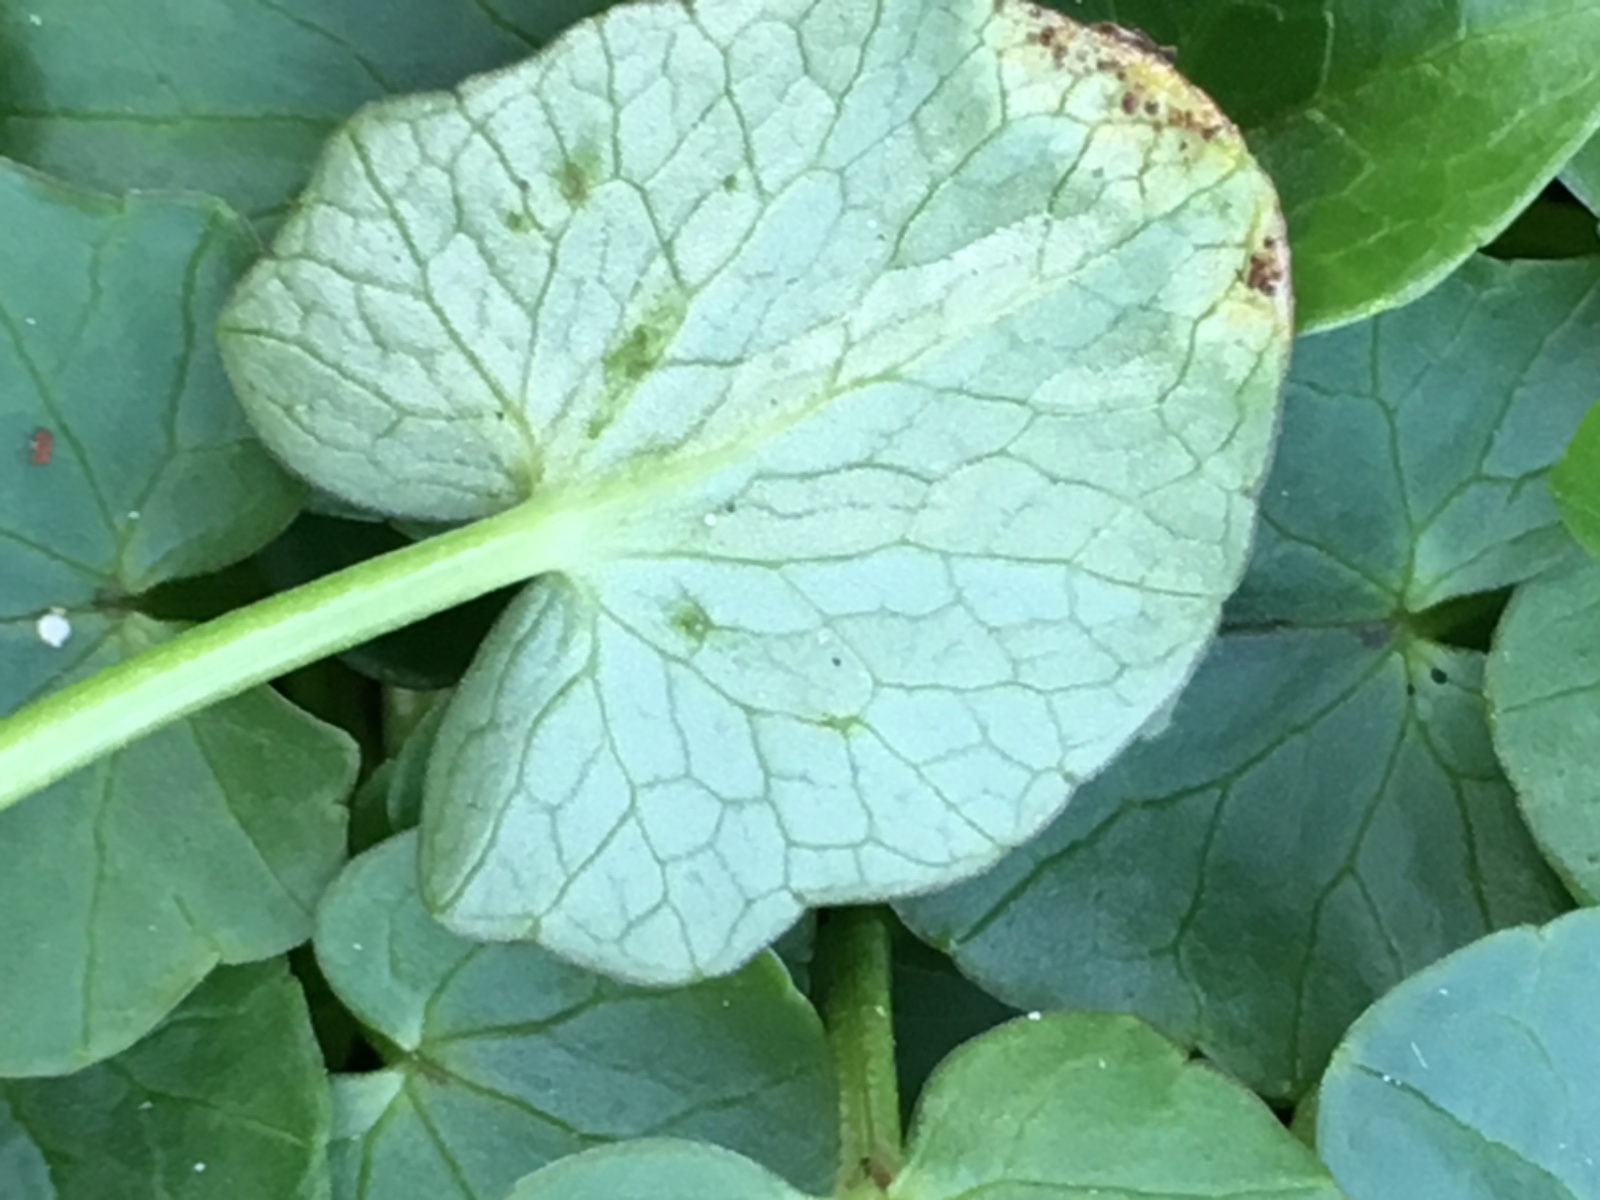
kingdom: Fungi
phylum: Basidiomycota
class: Pucciniomycetes
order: Pucciniales
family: Pucciniaceae
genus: Uromyces
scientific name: Uromyces ficariae
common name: vorterod-encellerust
